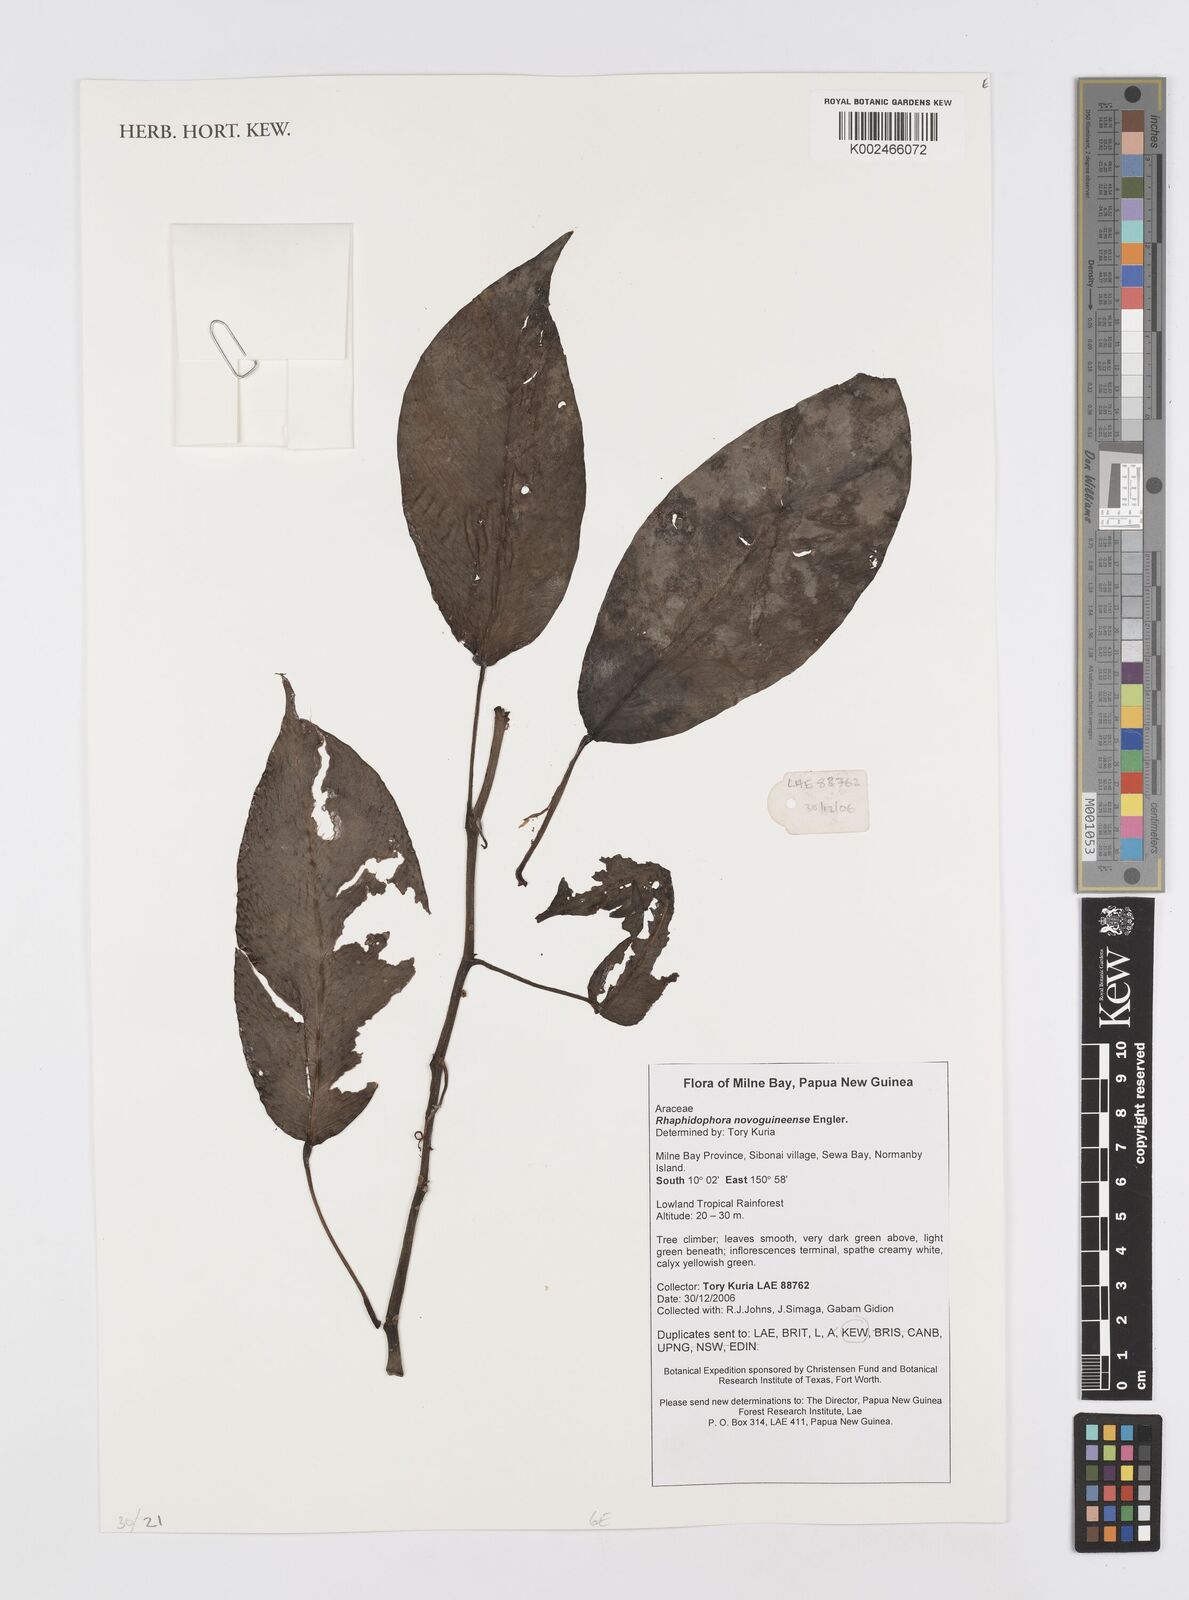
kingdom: Plantae
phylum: Tracheophyta
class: Liliopsida
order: Alismatales
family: Araceae
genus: Rhaphidophora
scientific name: Rhaphidophora neoguineensis
